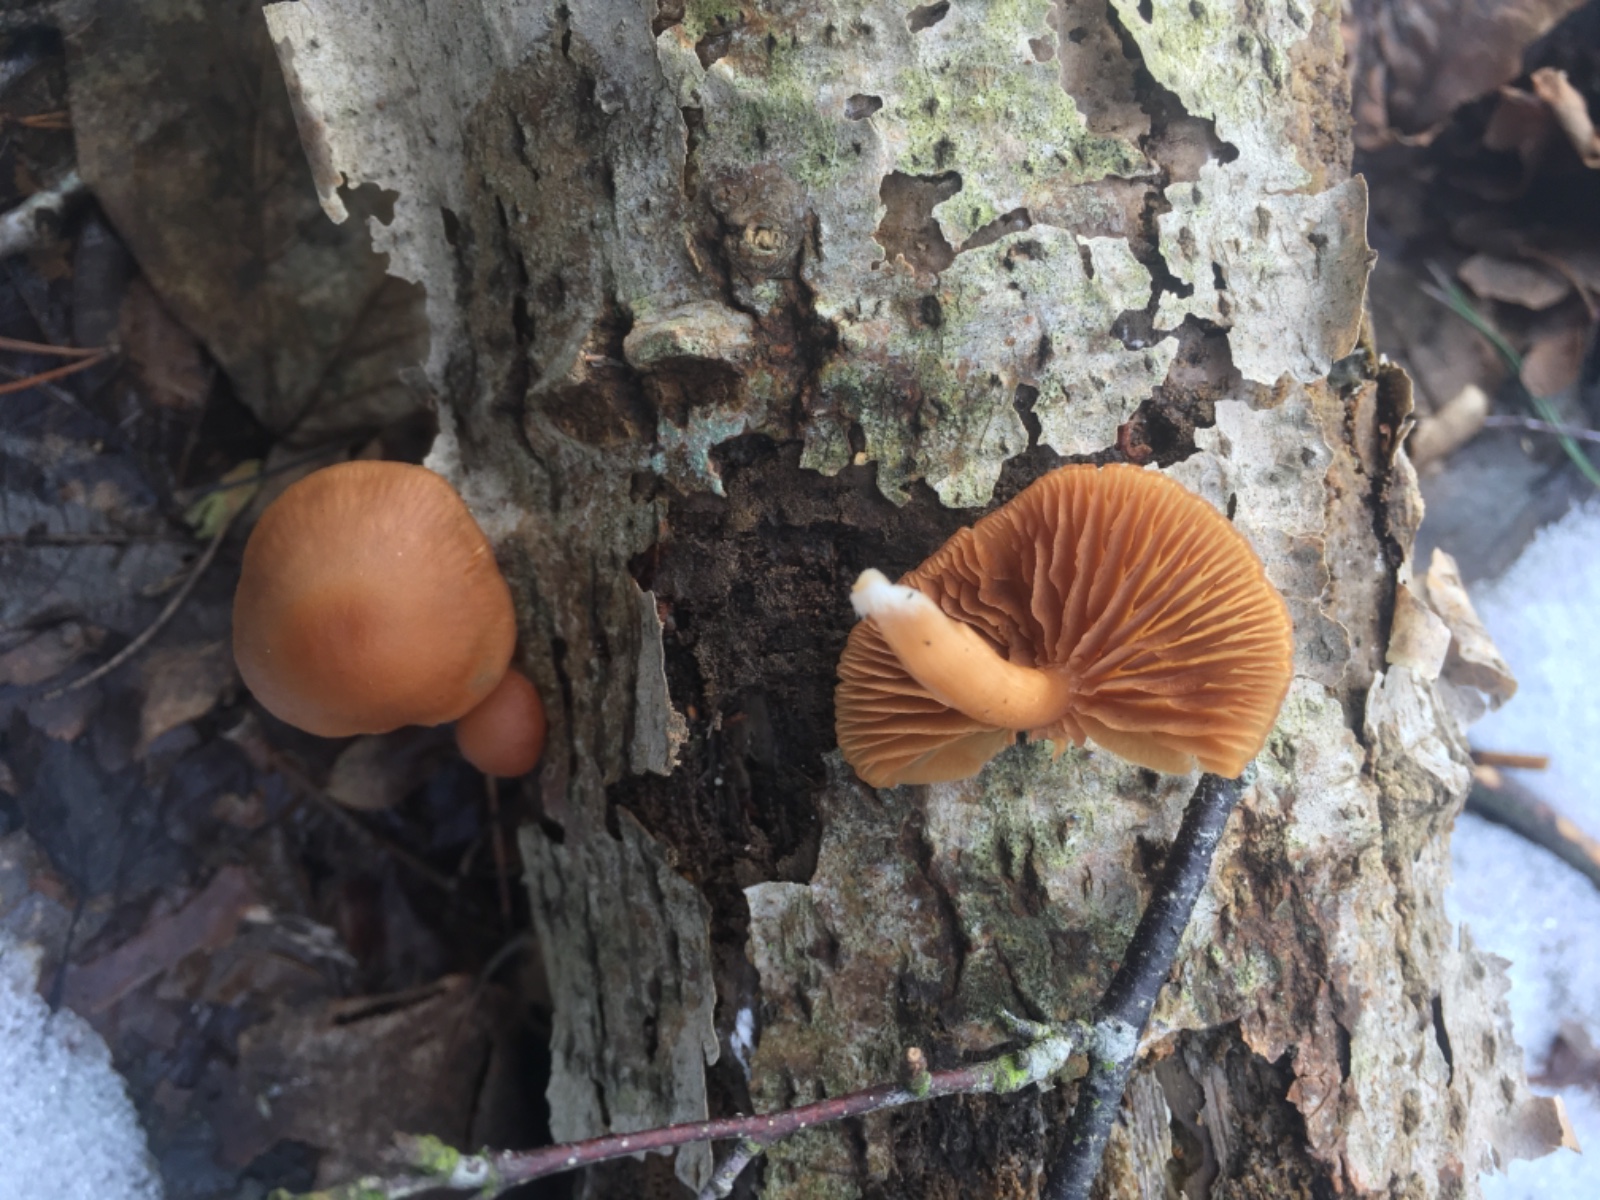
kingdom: Fungi
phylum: Basidiomycota
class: Agaricomycetes
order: Agaricales
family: Tubariaceae
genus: Tubaria
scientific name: Tubaria furfuracea
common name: kliddet fnughat
